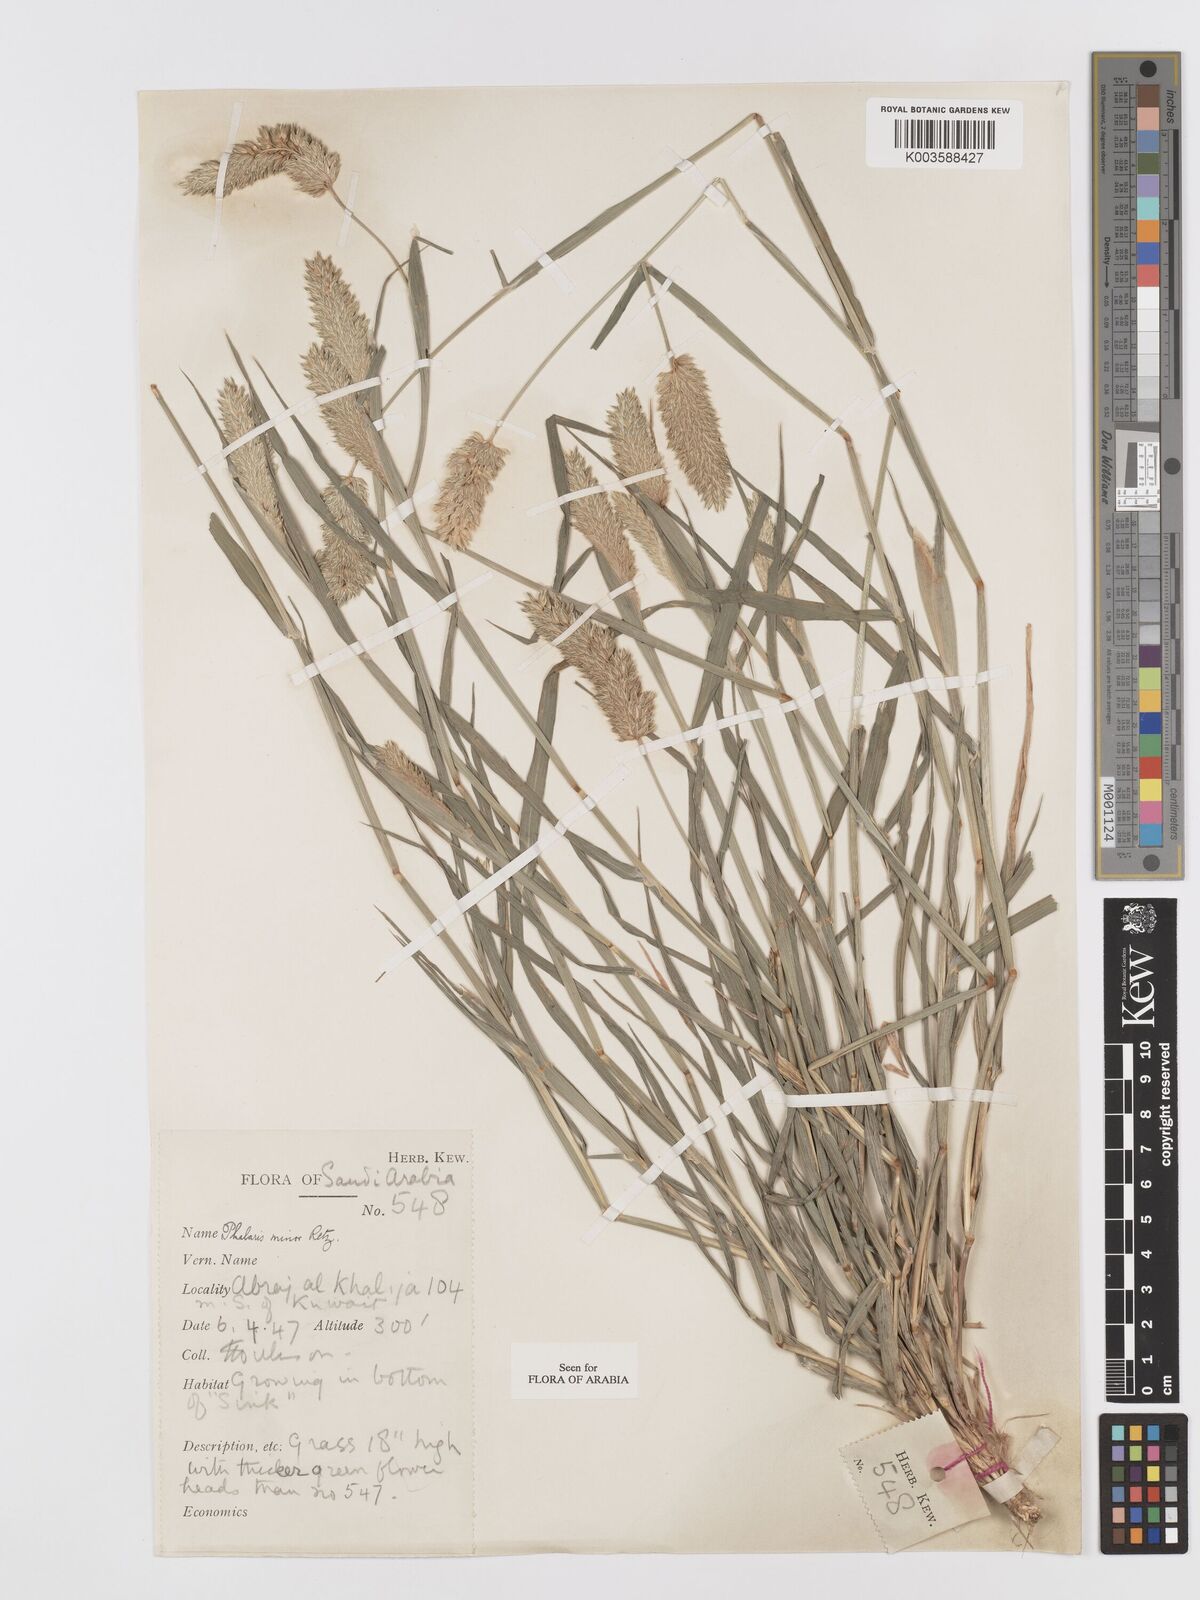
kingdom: Plantae
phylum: Tracheophyta
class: Liliopsida
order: Poales
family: Poaceae
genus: Phalaris
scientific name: Phalaris minor
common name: Littleseed canarygrass
